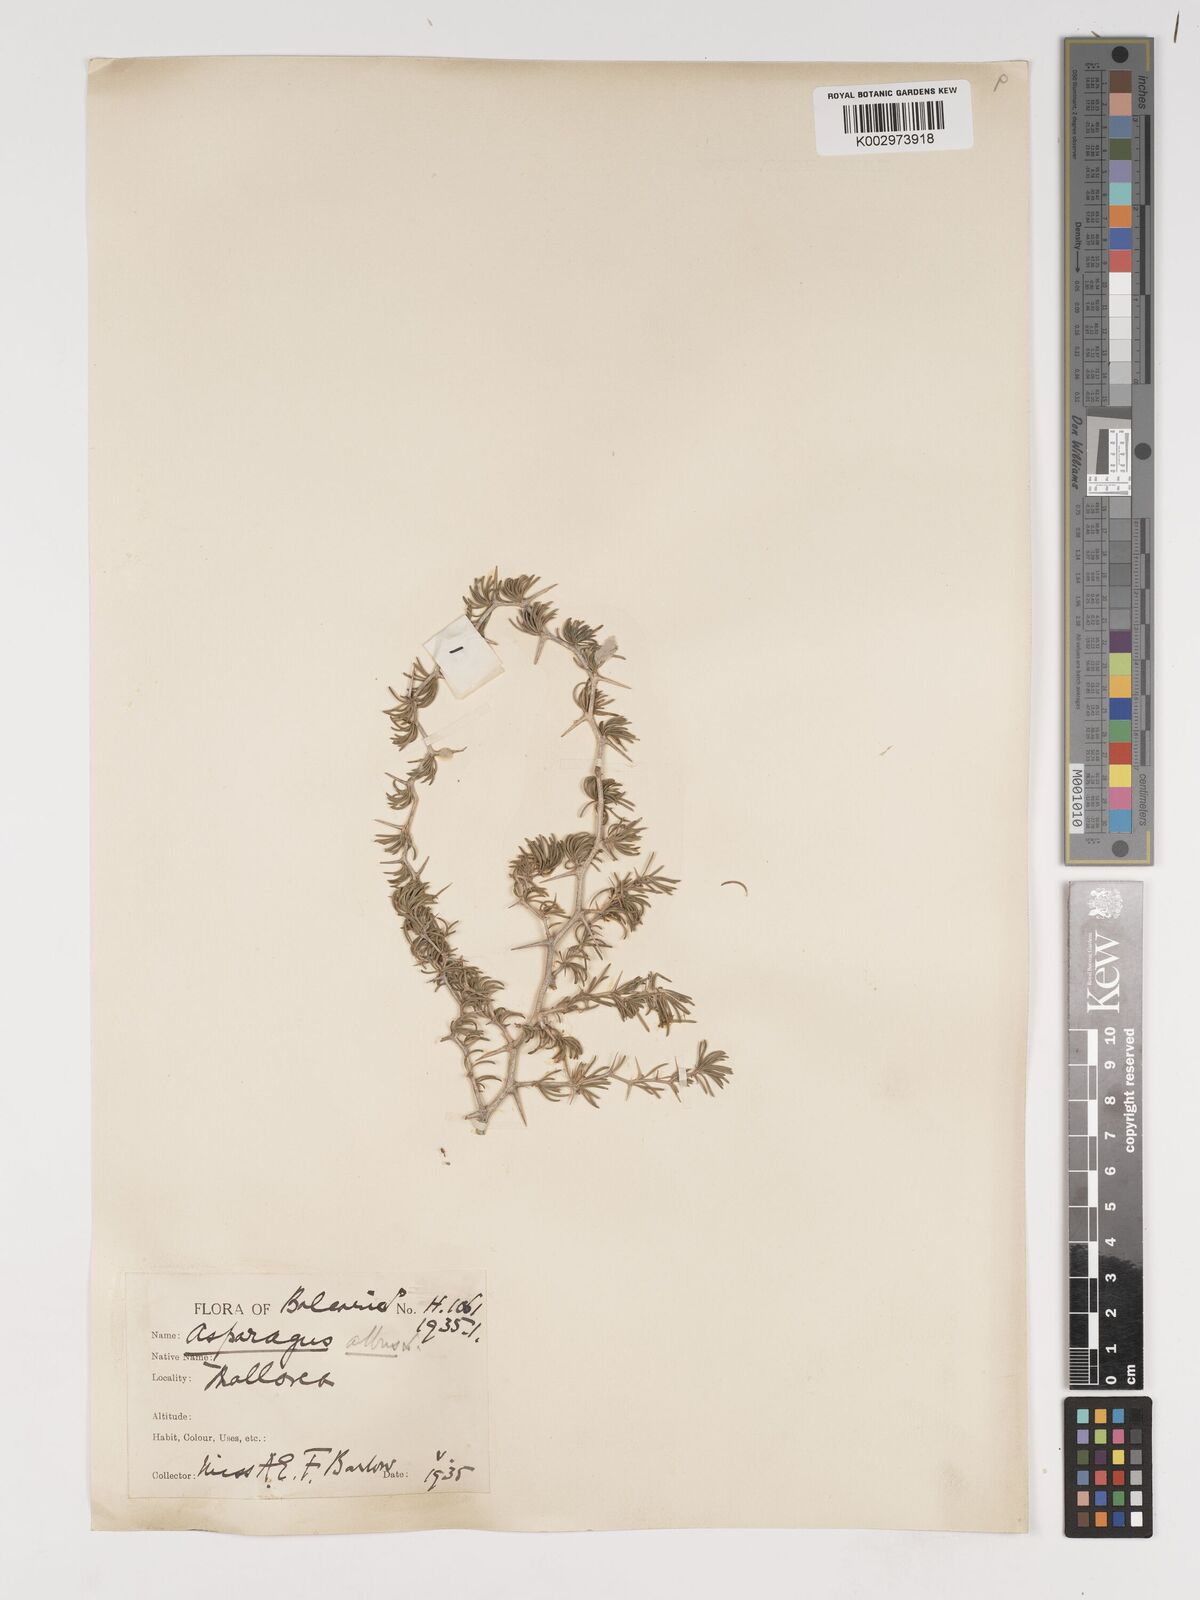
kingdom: Plantae
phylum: Tracheophyta
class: Liliopsida
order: Asparagales
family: Asparagaceae
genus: Asparagus
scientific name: Asparagus albus
